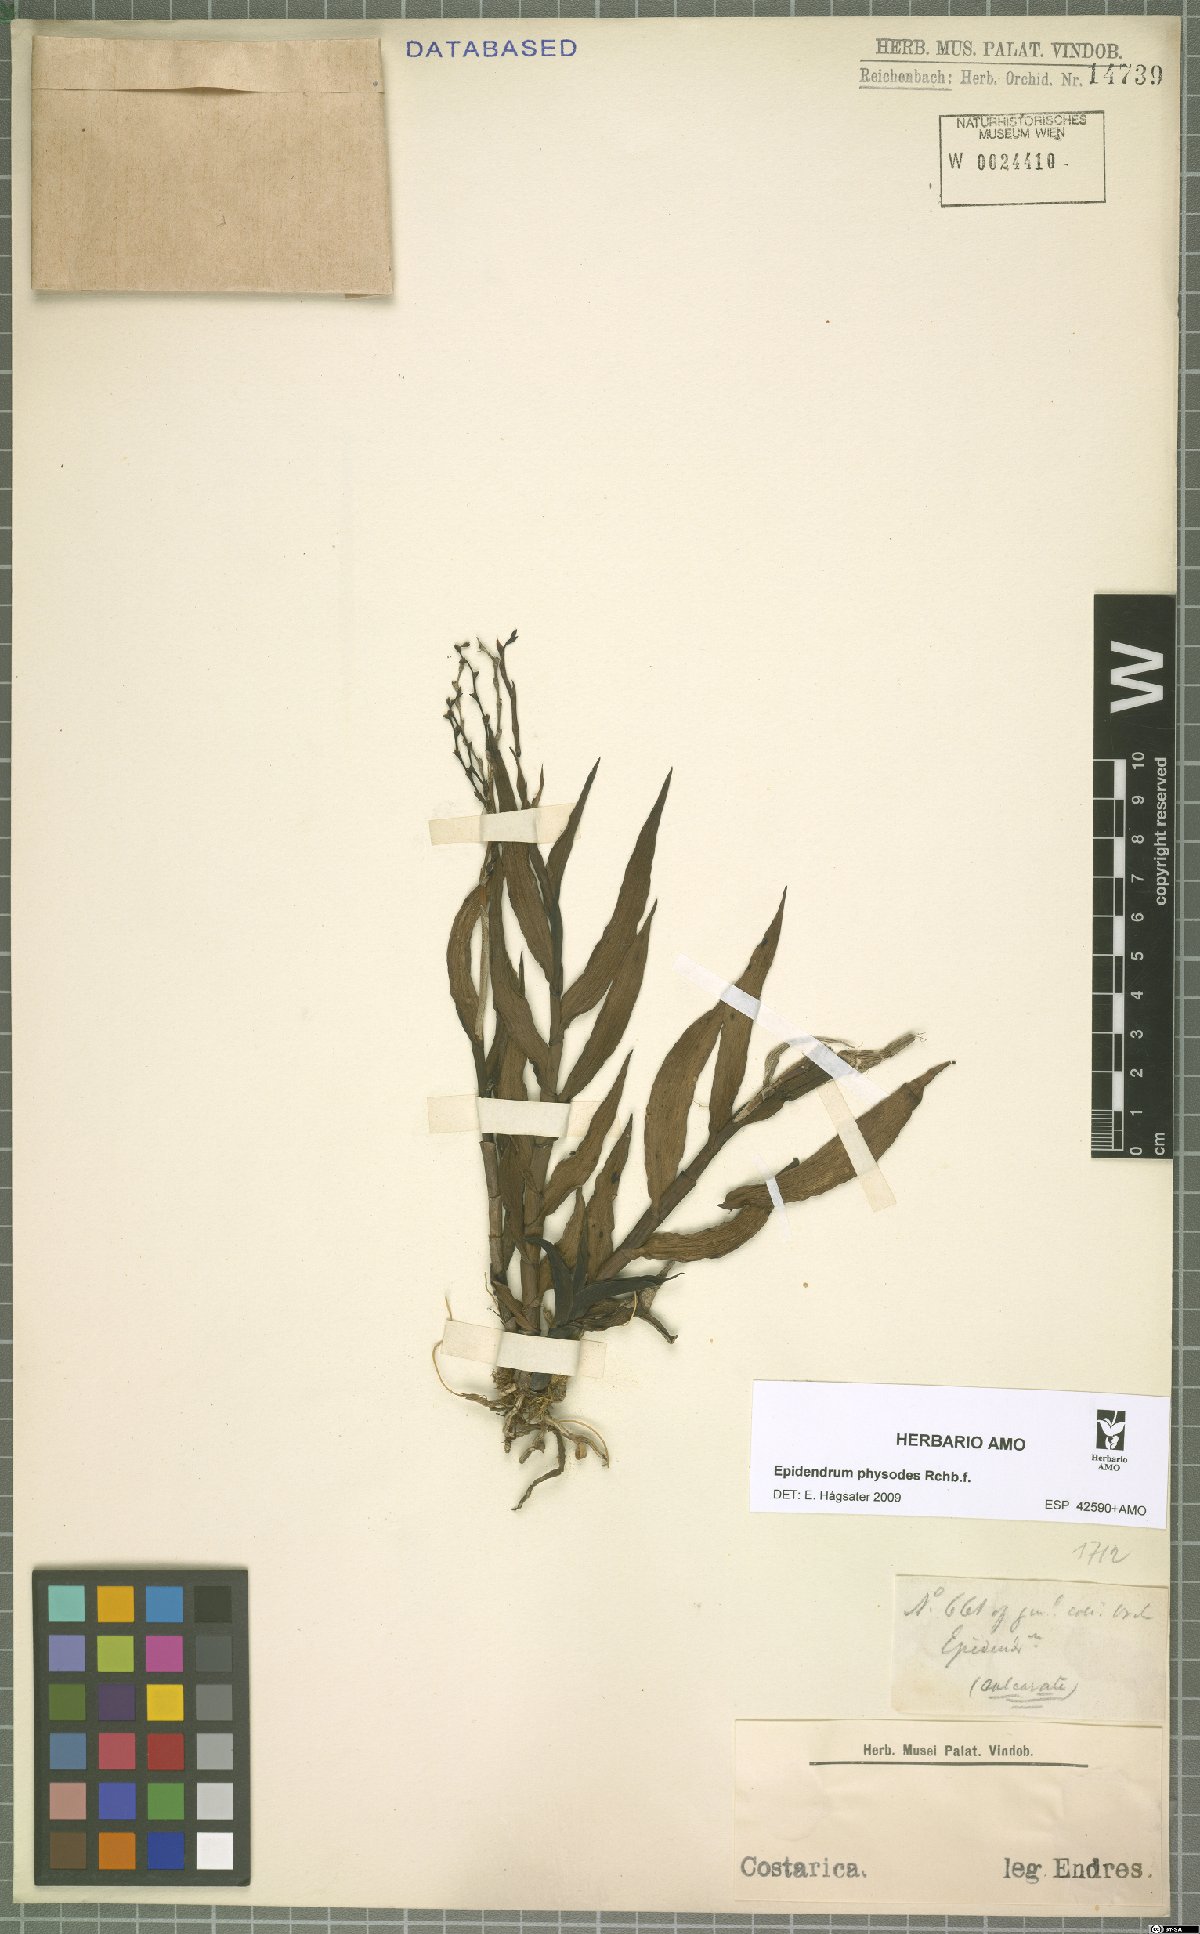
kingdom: Plantae
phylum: Tracheophyta
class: Liliopsida
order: Asparagales
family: Orchidaceae
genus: Epidendrum
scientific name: Epidendrum physodes
